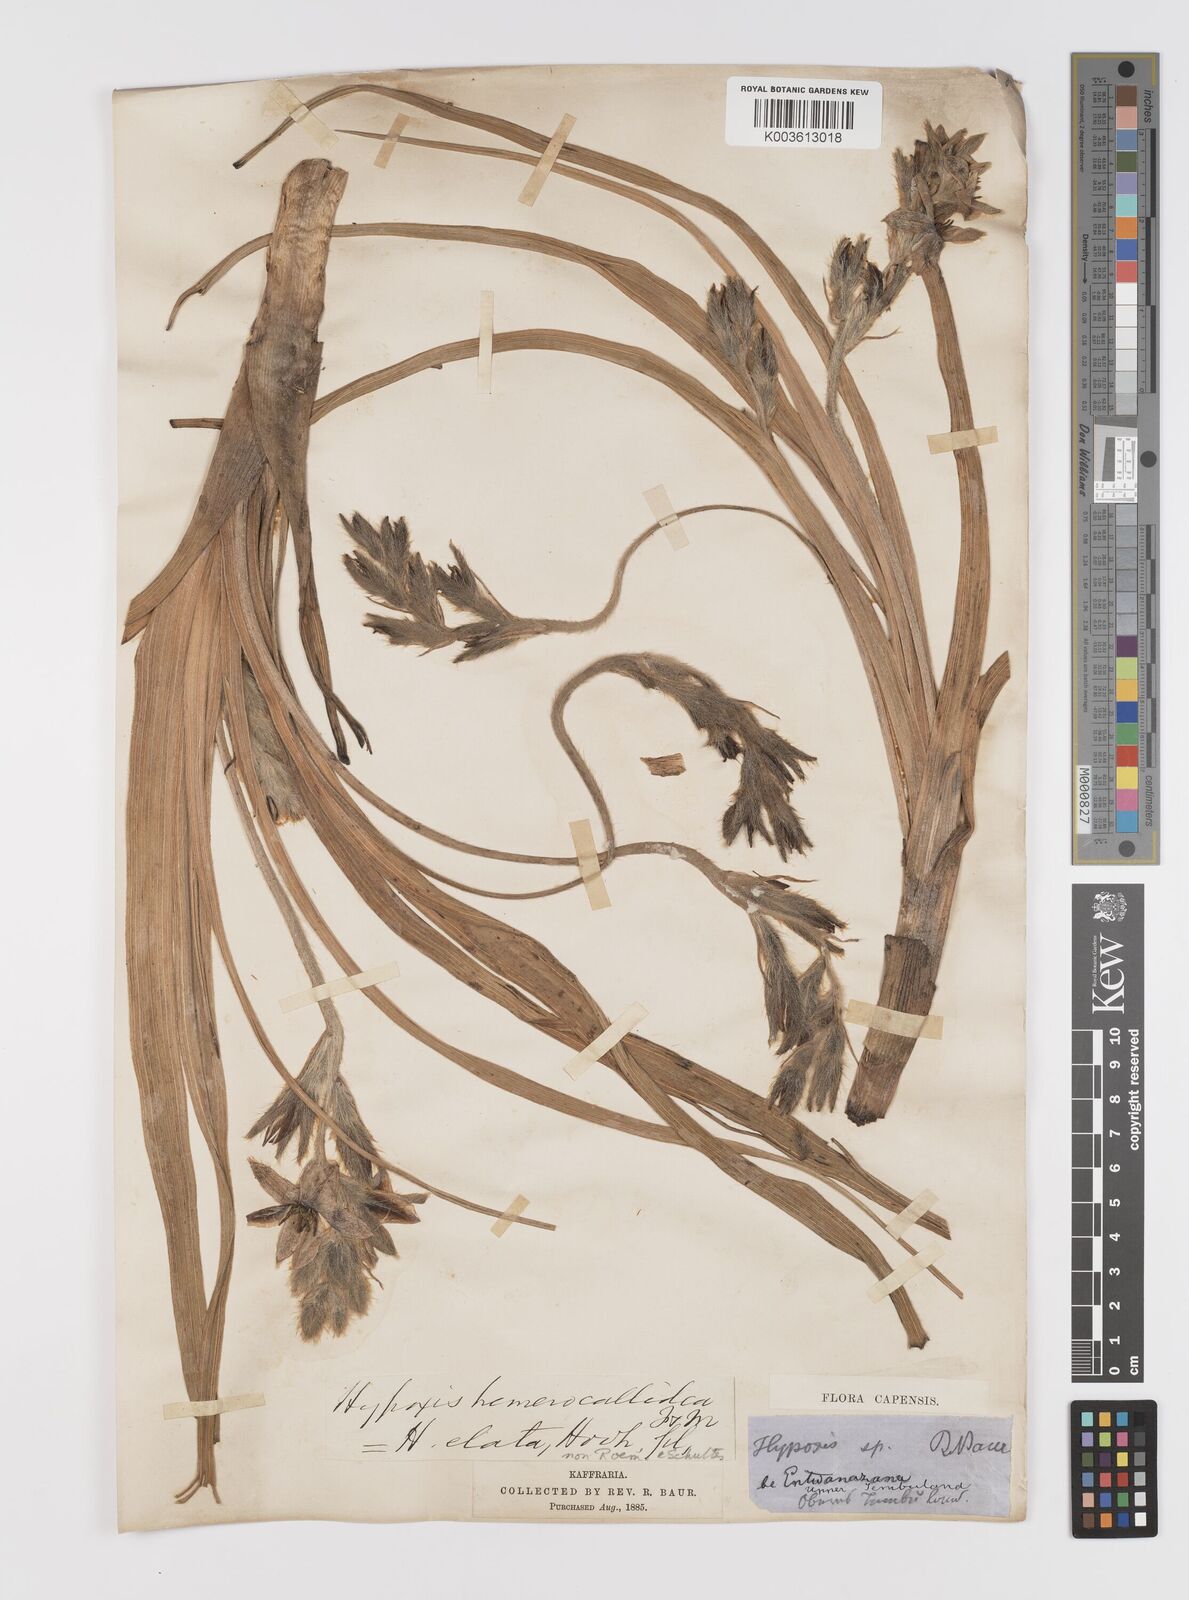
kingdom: Plantae
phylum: Tracheophyta
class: Liliopsida
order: Asparagales
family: Hypoxidaceae
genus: Hypoxis
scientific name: Hypoxis rigidula
